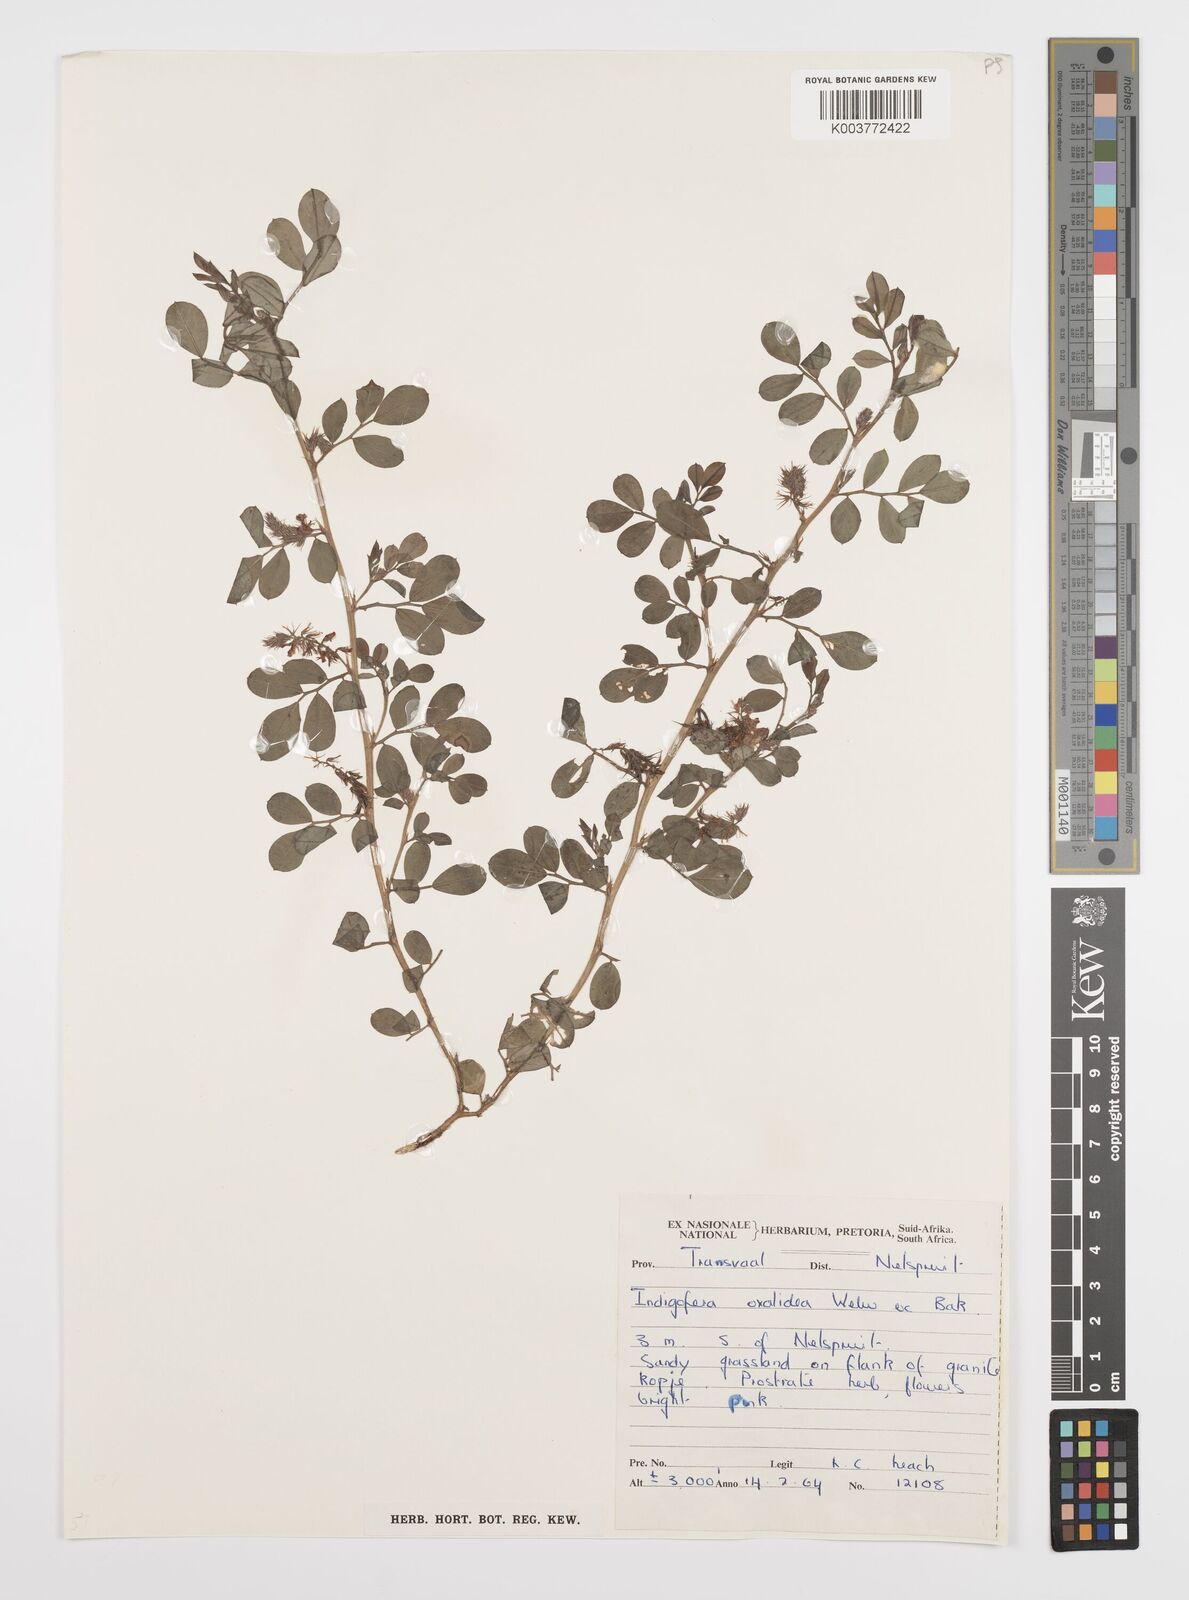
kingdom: Plantae
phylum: Tracheophyta
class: Magnoliopsida
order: Fabales
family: Fabaceae
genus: Indigofera
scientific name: Indigofera oxalidea
